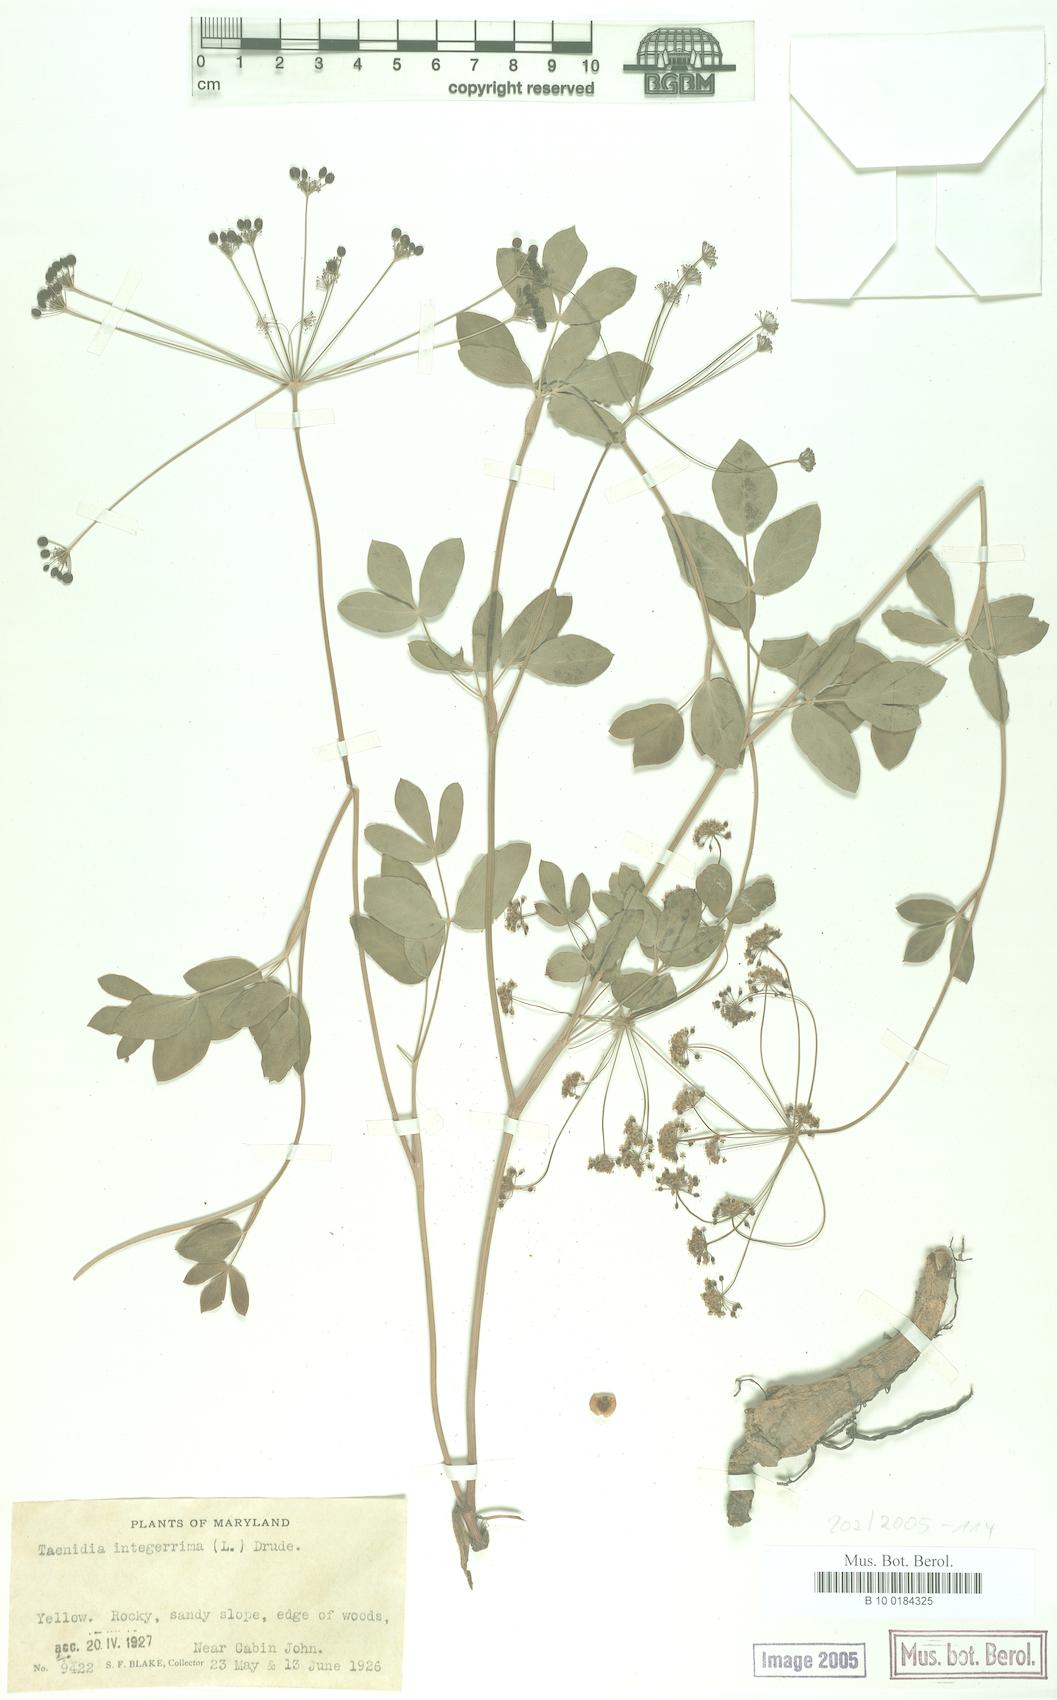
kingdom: Plantae
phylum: Tracheophyta
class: Magnoliopsida
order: Apiales
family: Apiaceae
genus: Taenidia
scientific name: Taenidia integerrima
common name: Golden alexander
